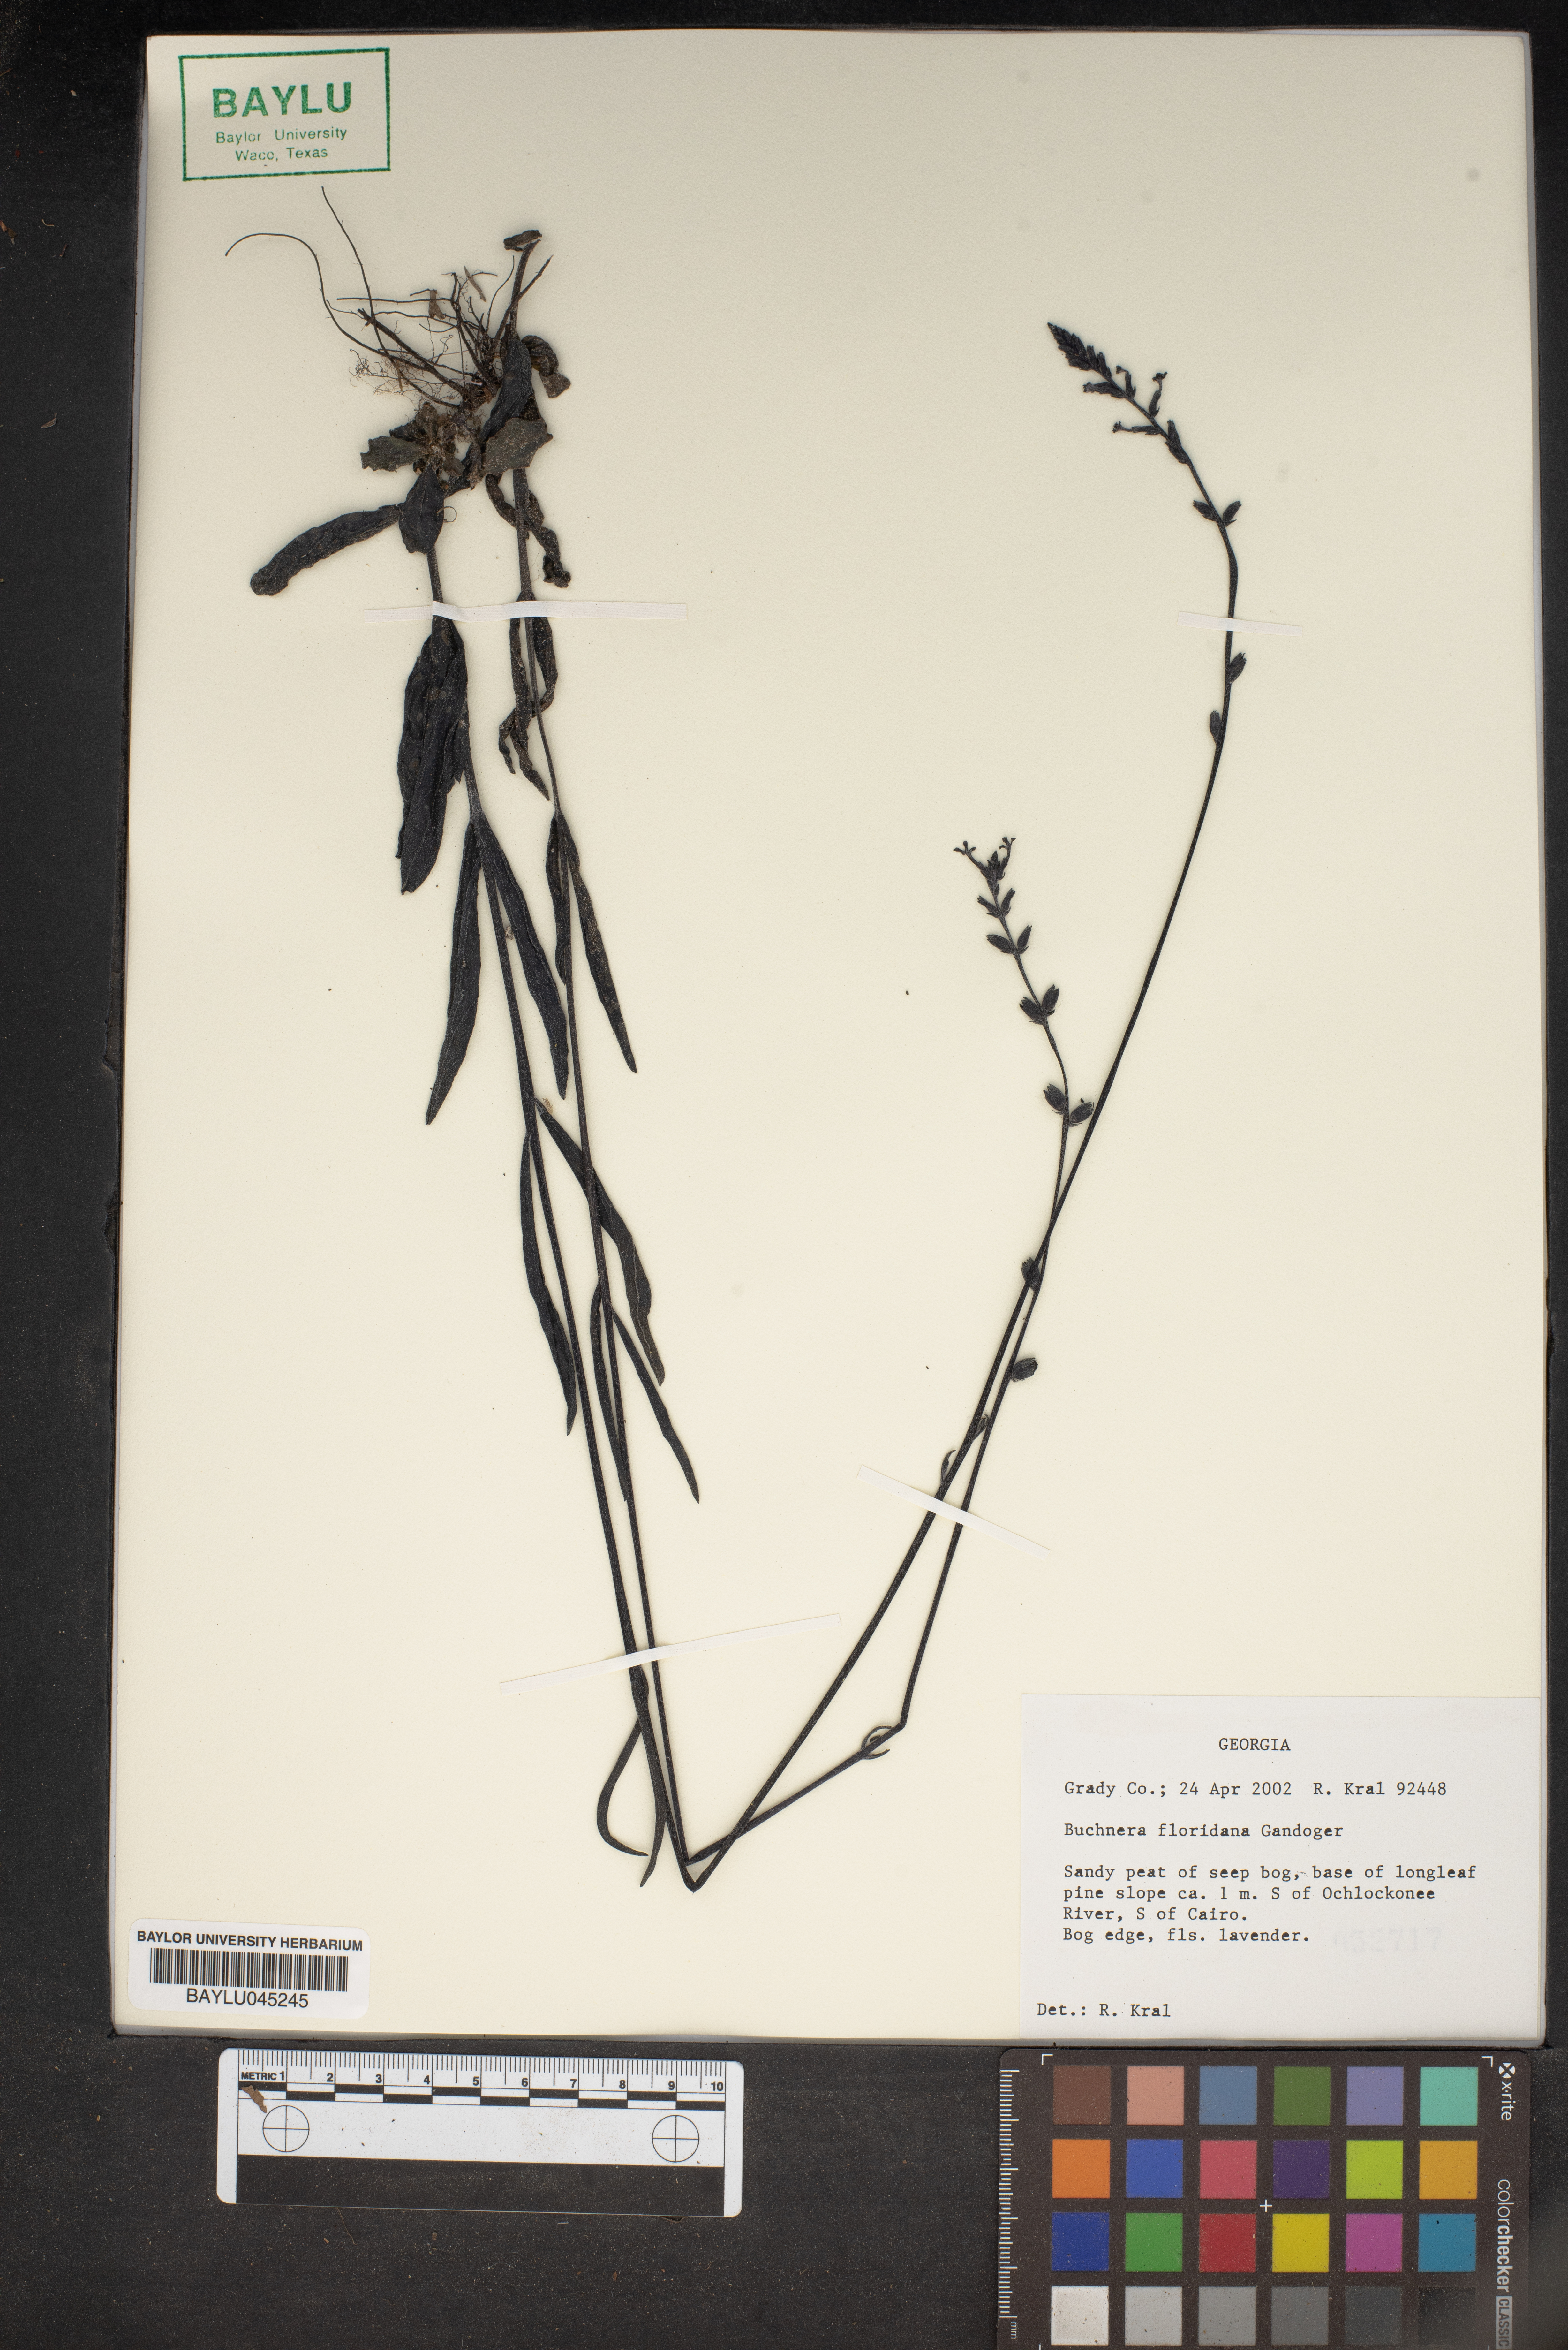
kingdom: Plantae
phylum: Tracheophyta
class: Magnoliopsida
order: Lamiales
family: Orobanchaceae
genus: Buchnera
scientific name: Buchnera floridana
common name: Florida bluehearts
